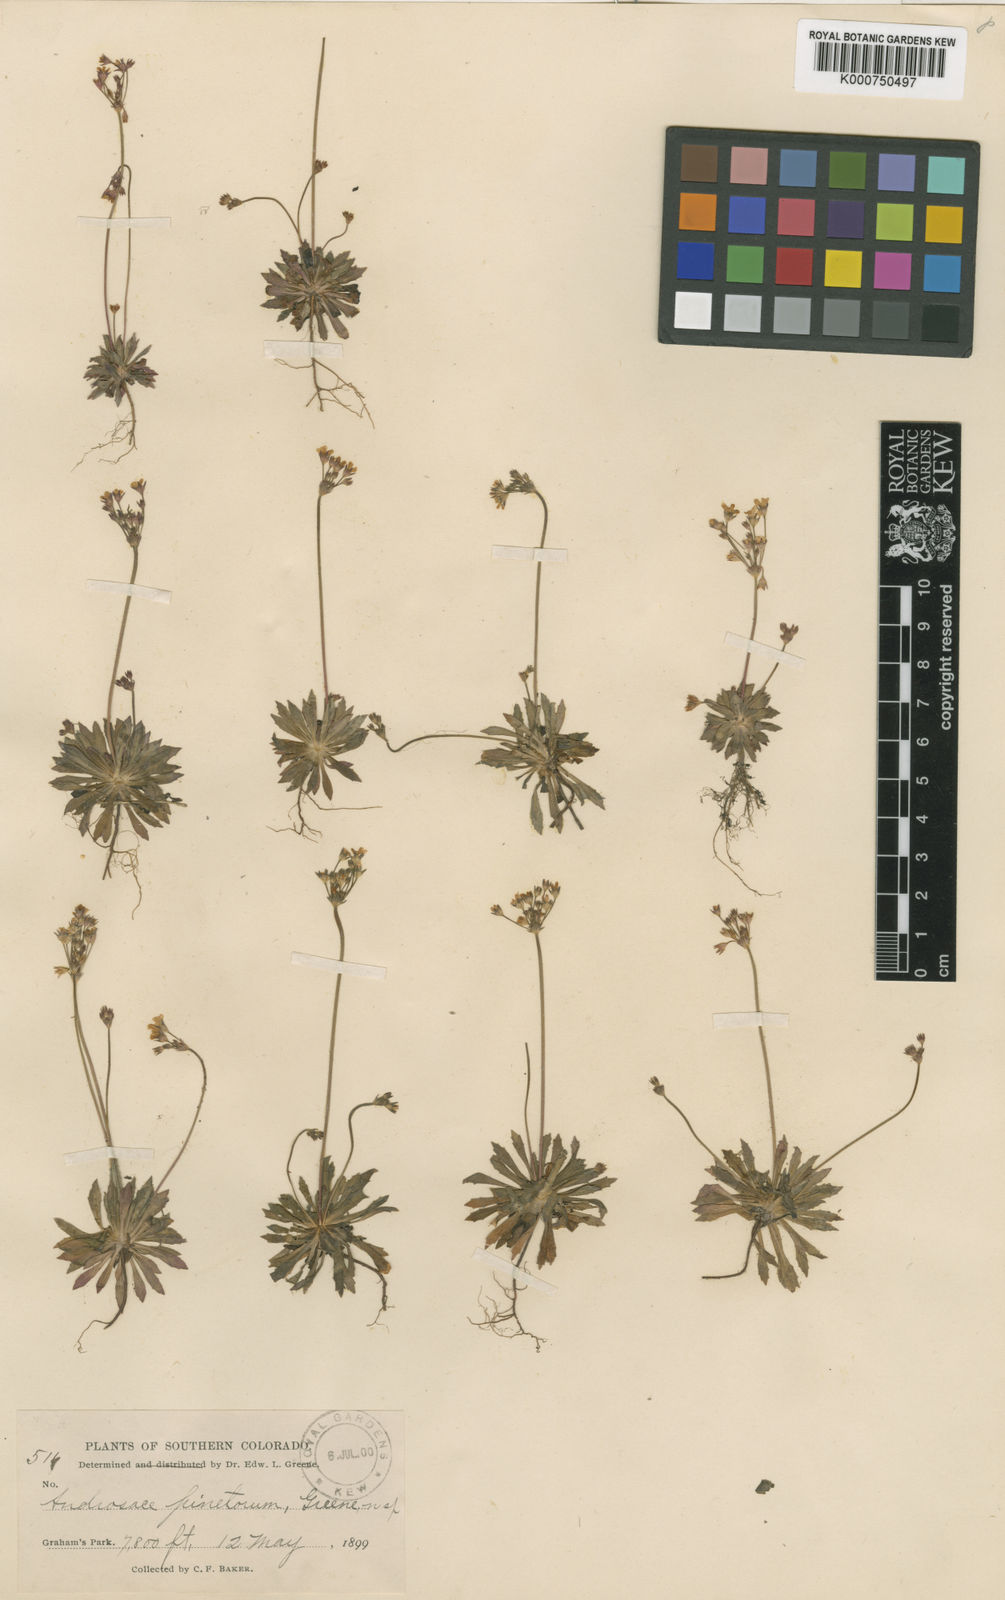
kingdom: Plantae
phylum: Tracheophyta
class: Magnoliopsida
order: Ericales
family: Primulaceae
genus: Androsace
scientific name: Androsace septentrionalis
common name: Hairy northern fairy-candelabra
